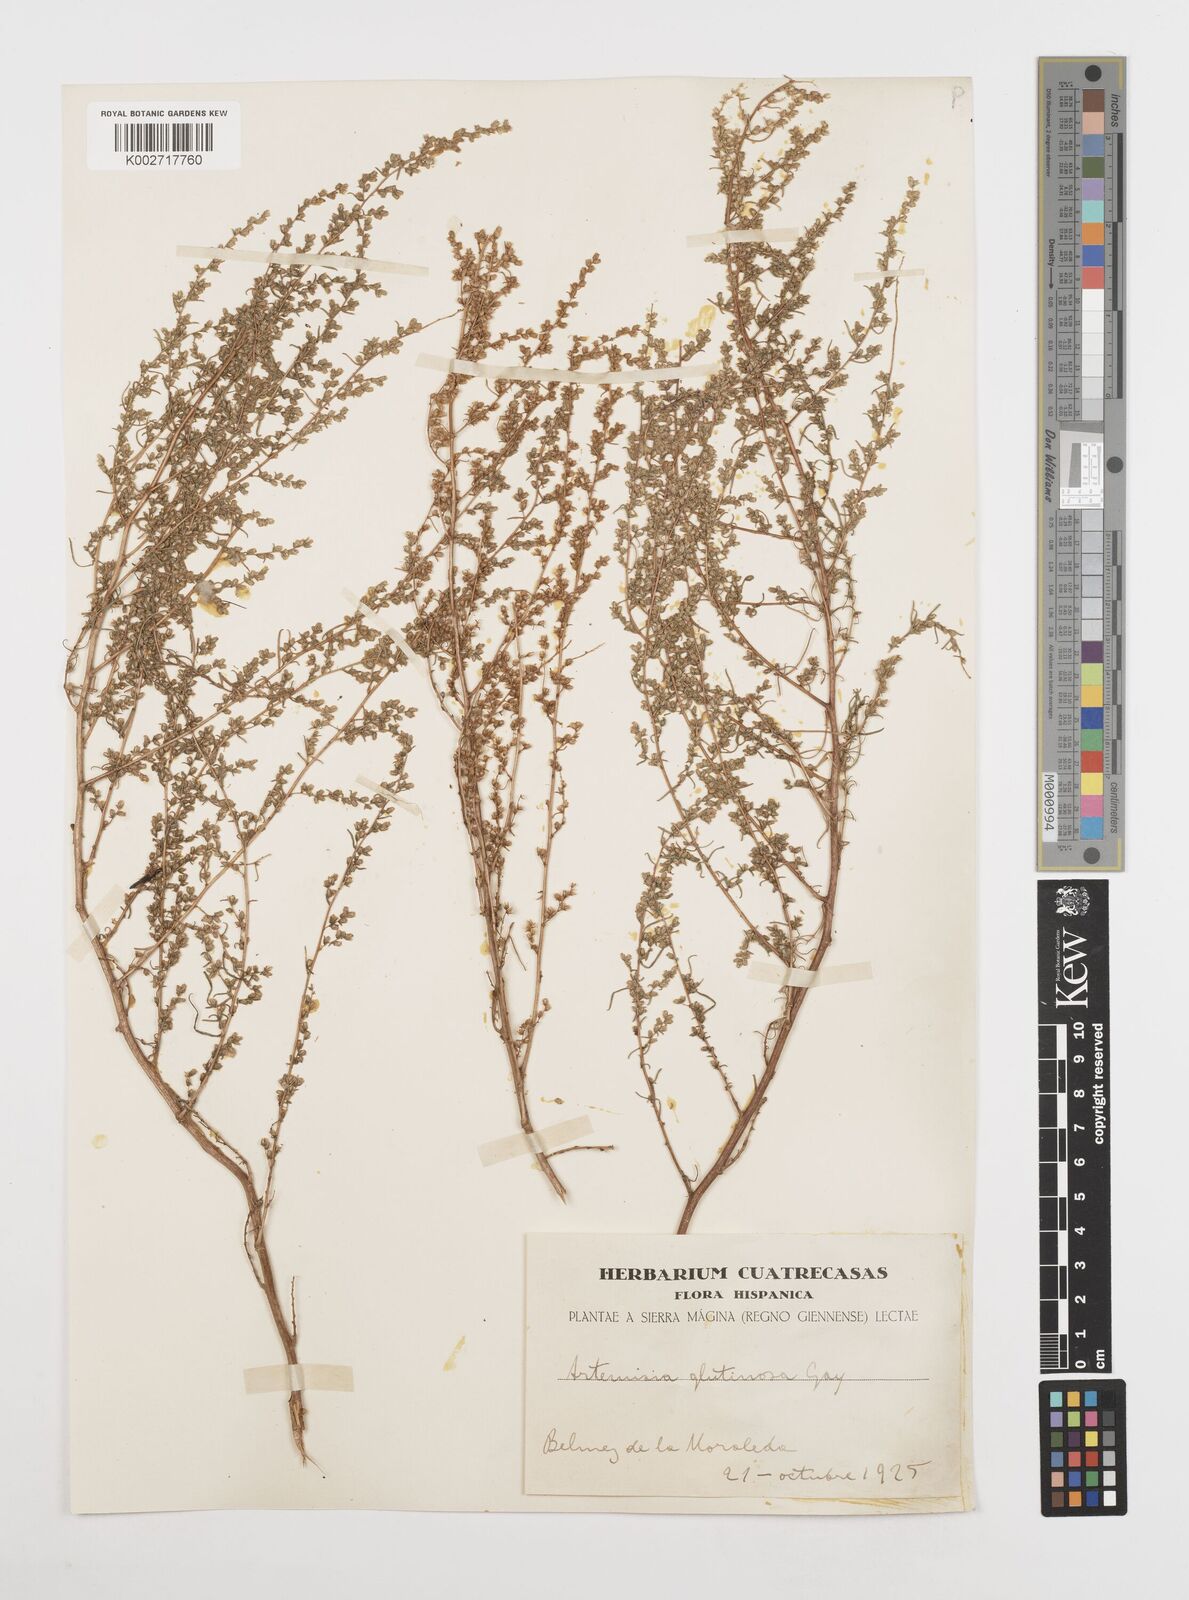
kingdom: Plantae
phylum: Tracheophyta
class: Magnoliopsida
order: Asterales
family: Asteraceae
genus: Artemisia
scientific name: Artemisia campestris
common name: Field wormwood
